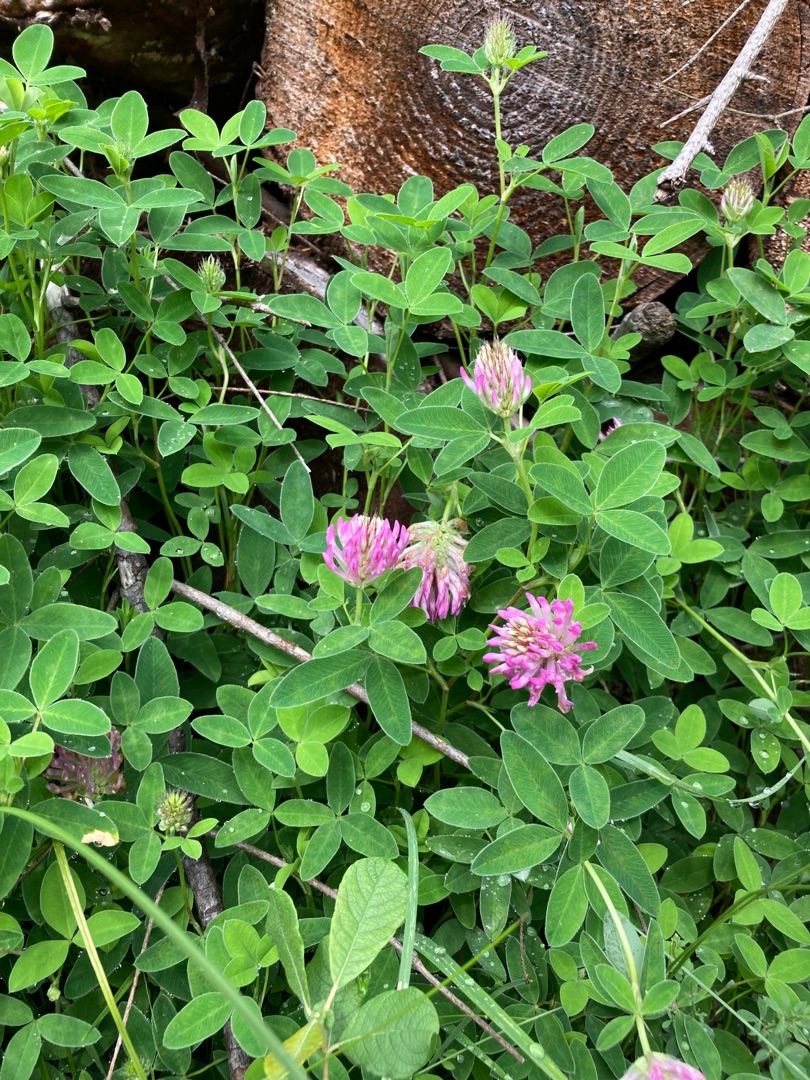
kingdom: Plantae
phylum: Tracheophyta
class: Magnoliopsida
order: Fabales
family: Fabaceae
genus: Trifolium
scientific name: Trifolium medium
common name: Bugtet kløver
